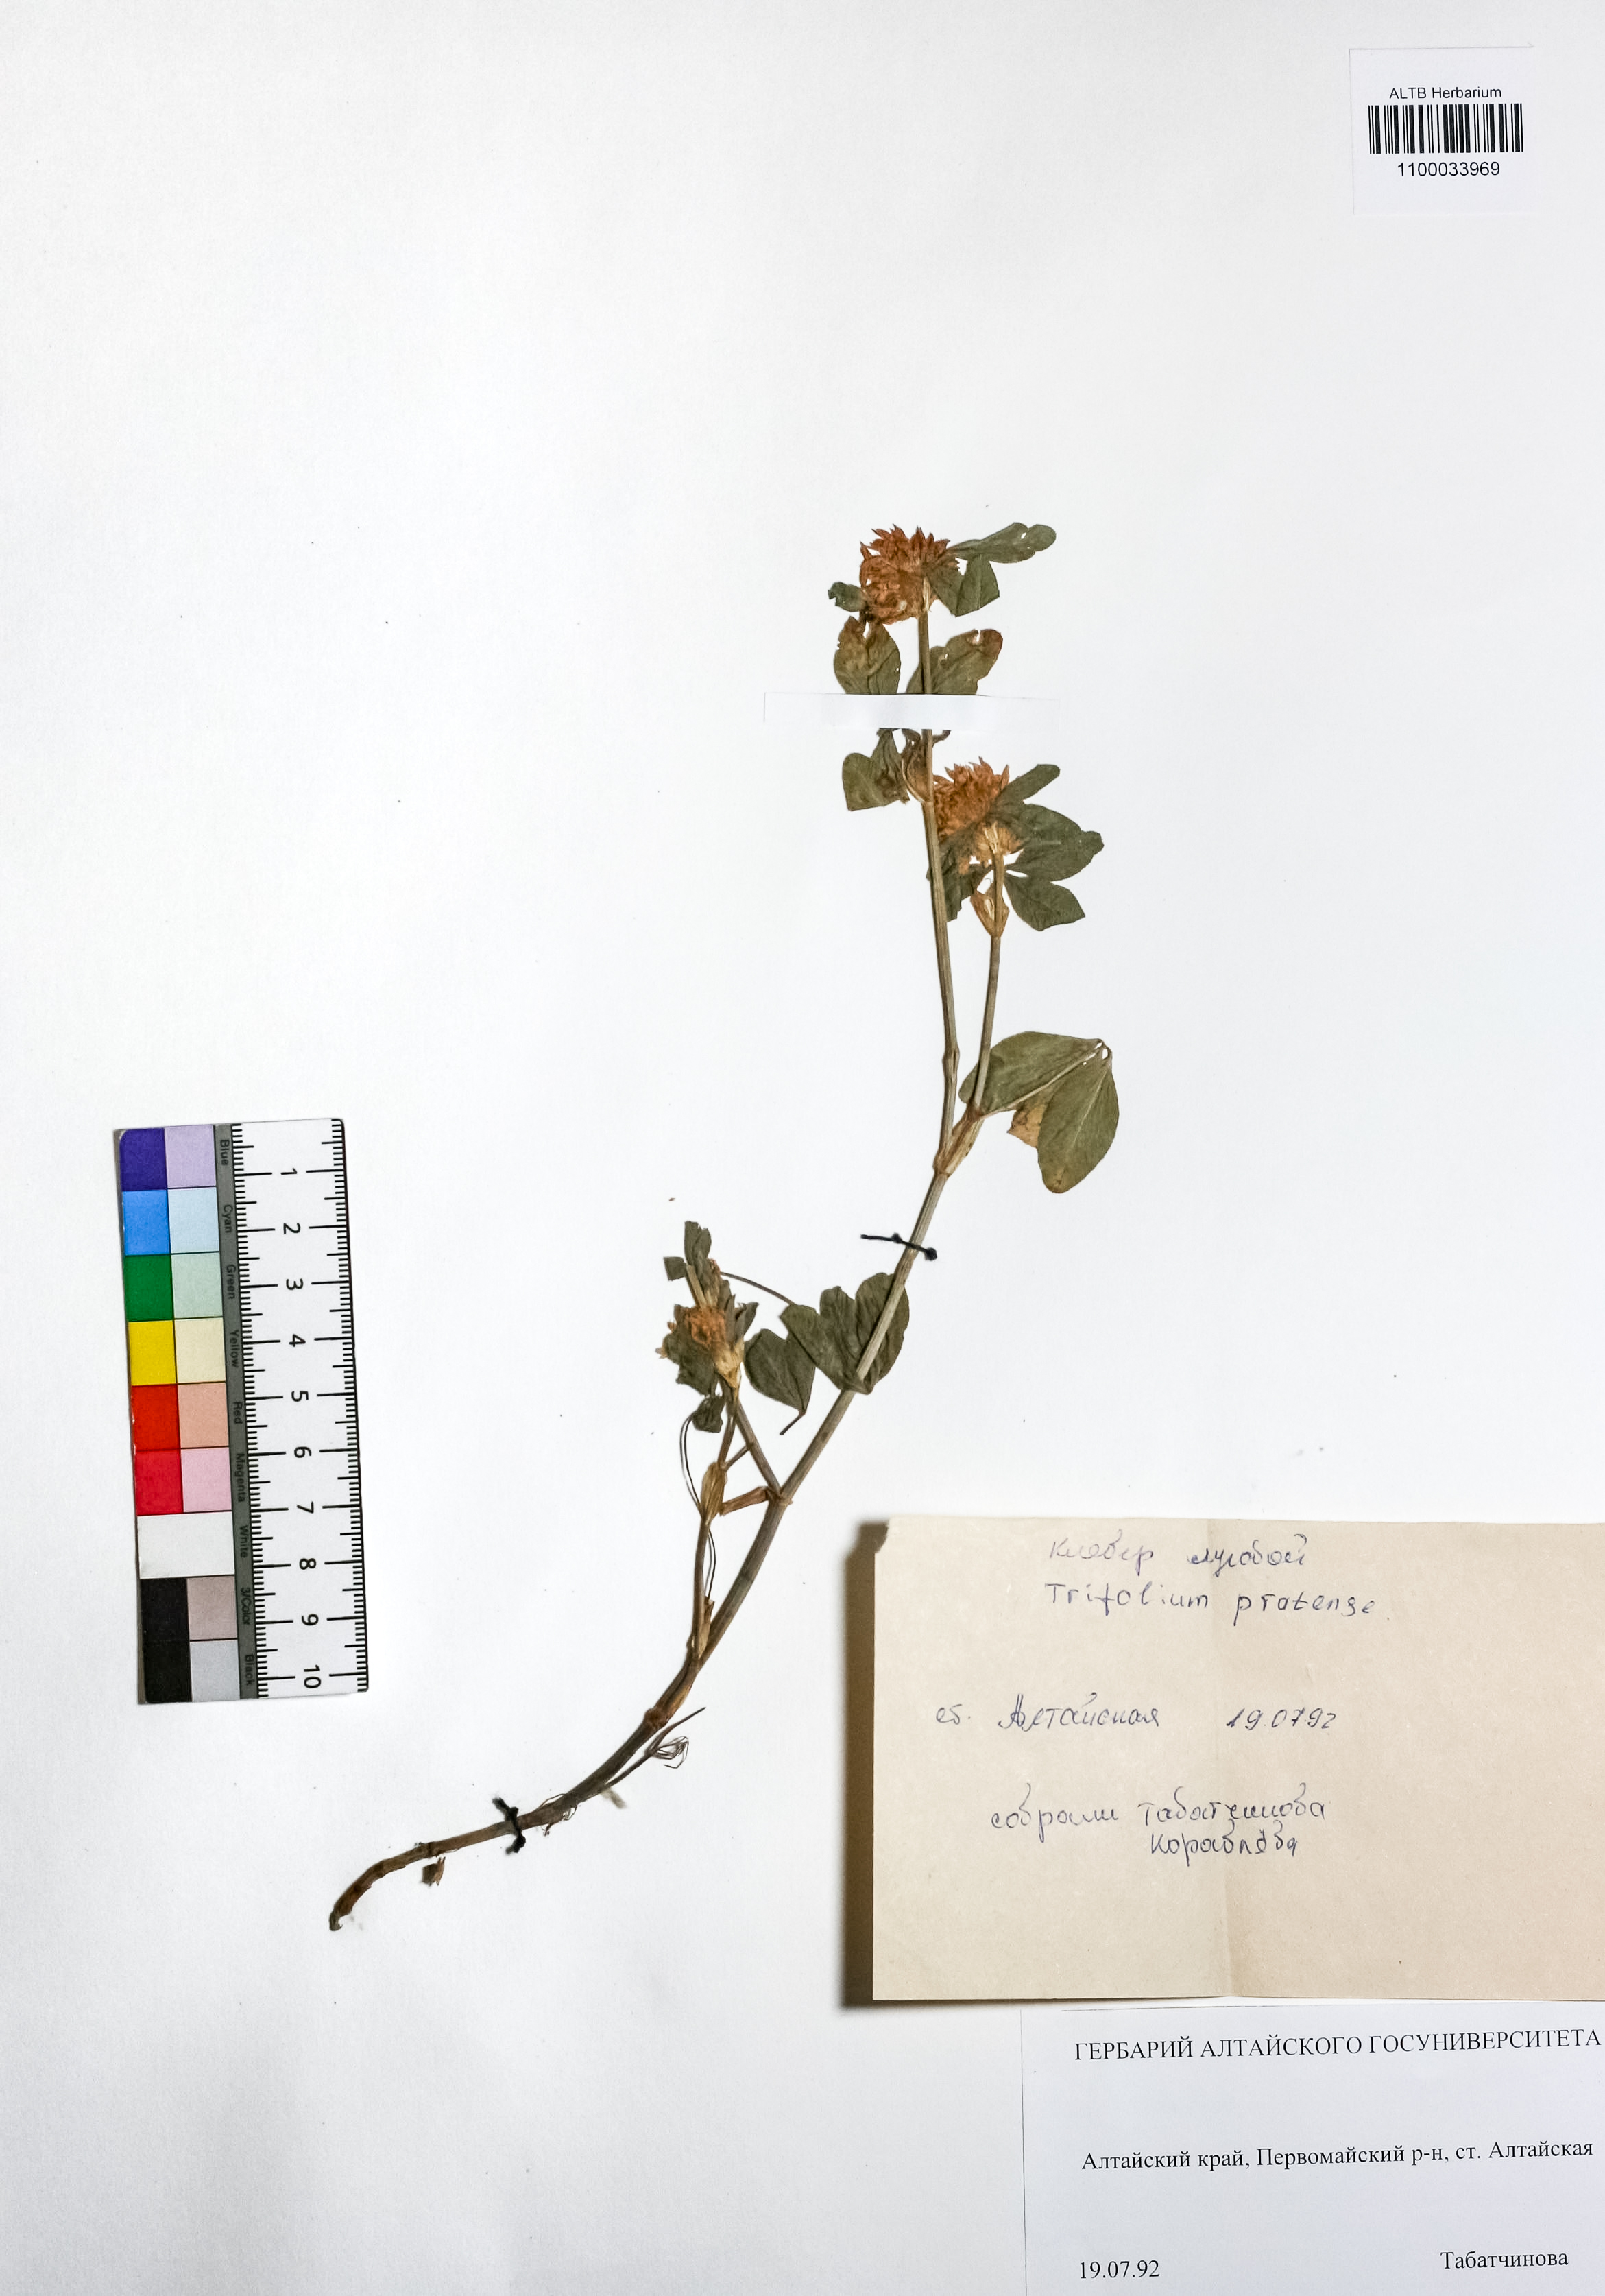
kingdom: Plantae
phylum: Tracheophyta
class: Magnoliopsida
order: Fabales
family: Fabaceae
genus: Trifolium
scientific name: Trifolium pratense
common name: Red clover
